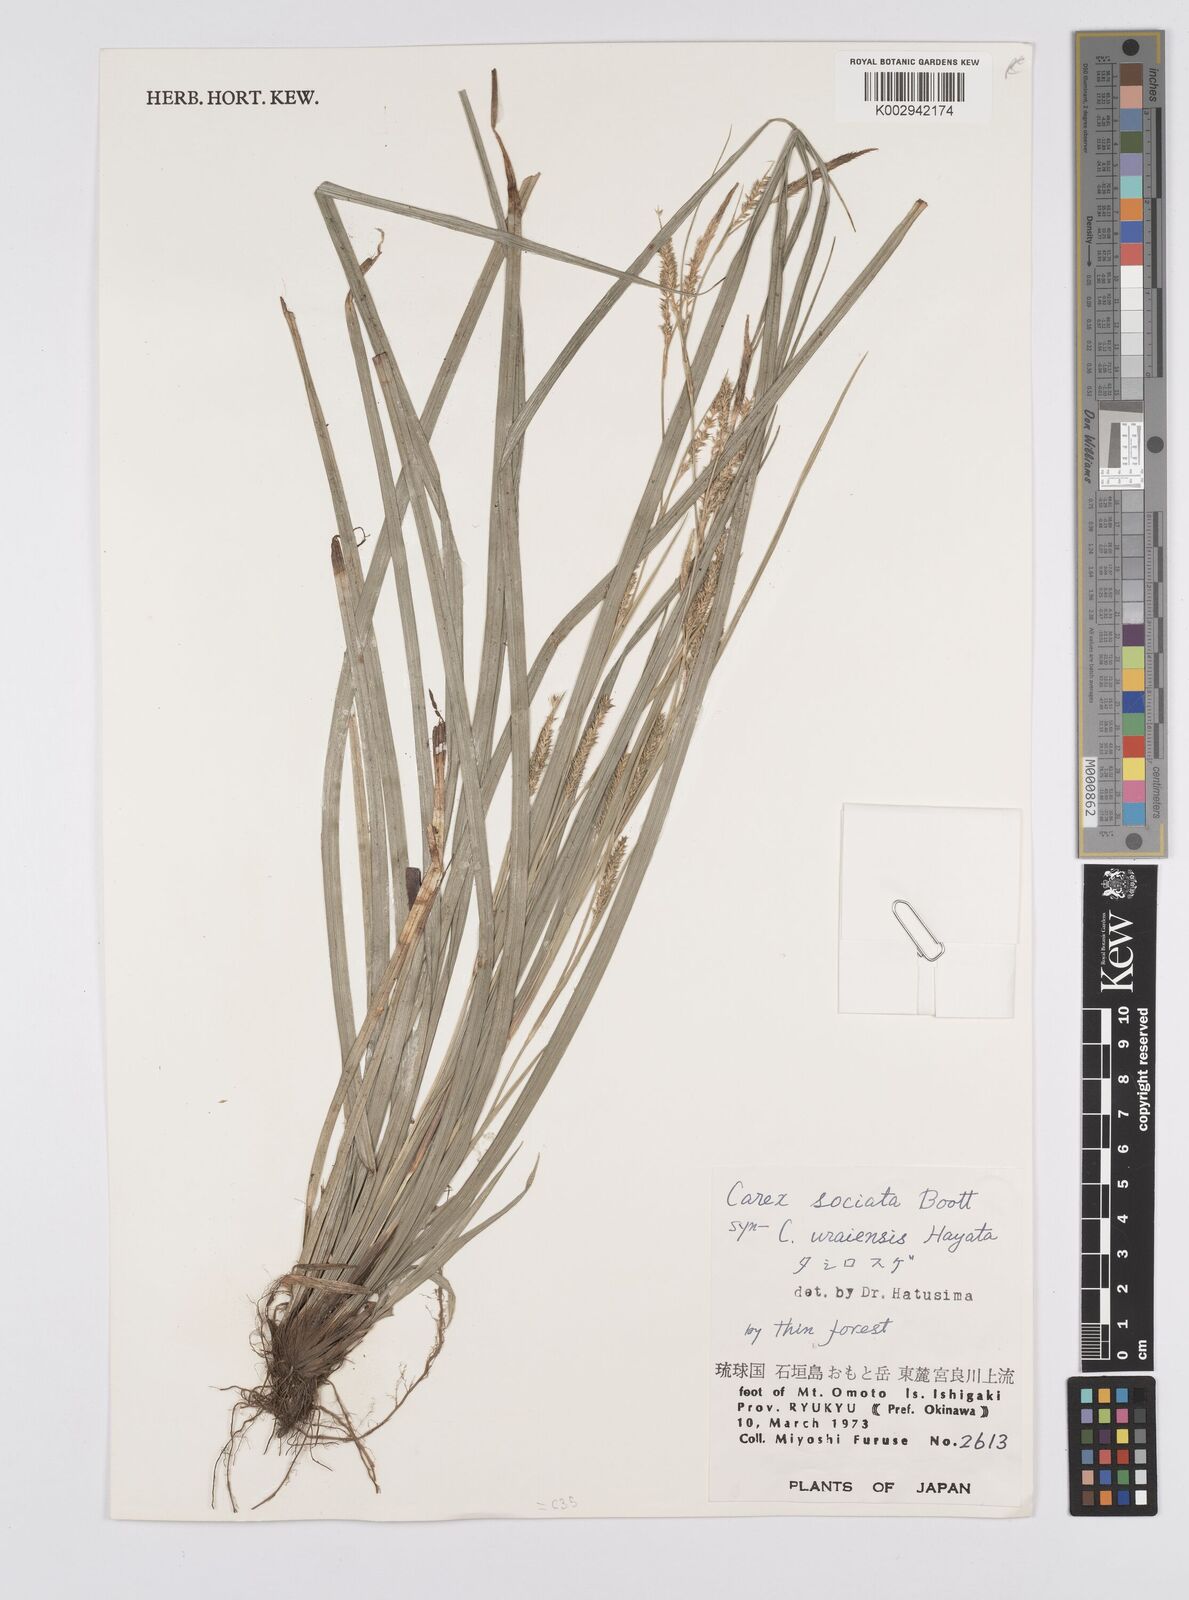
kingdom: Plantae
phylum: Tracheophyta
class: Liliopsida
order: Poales
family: Cyperaceae
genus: Carex
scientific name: Carex chinensis
